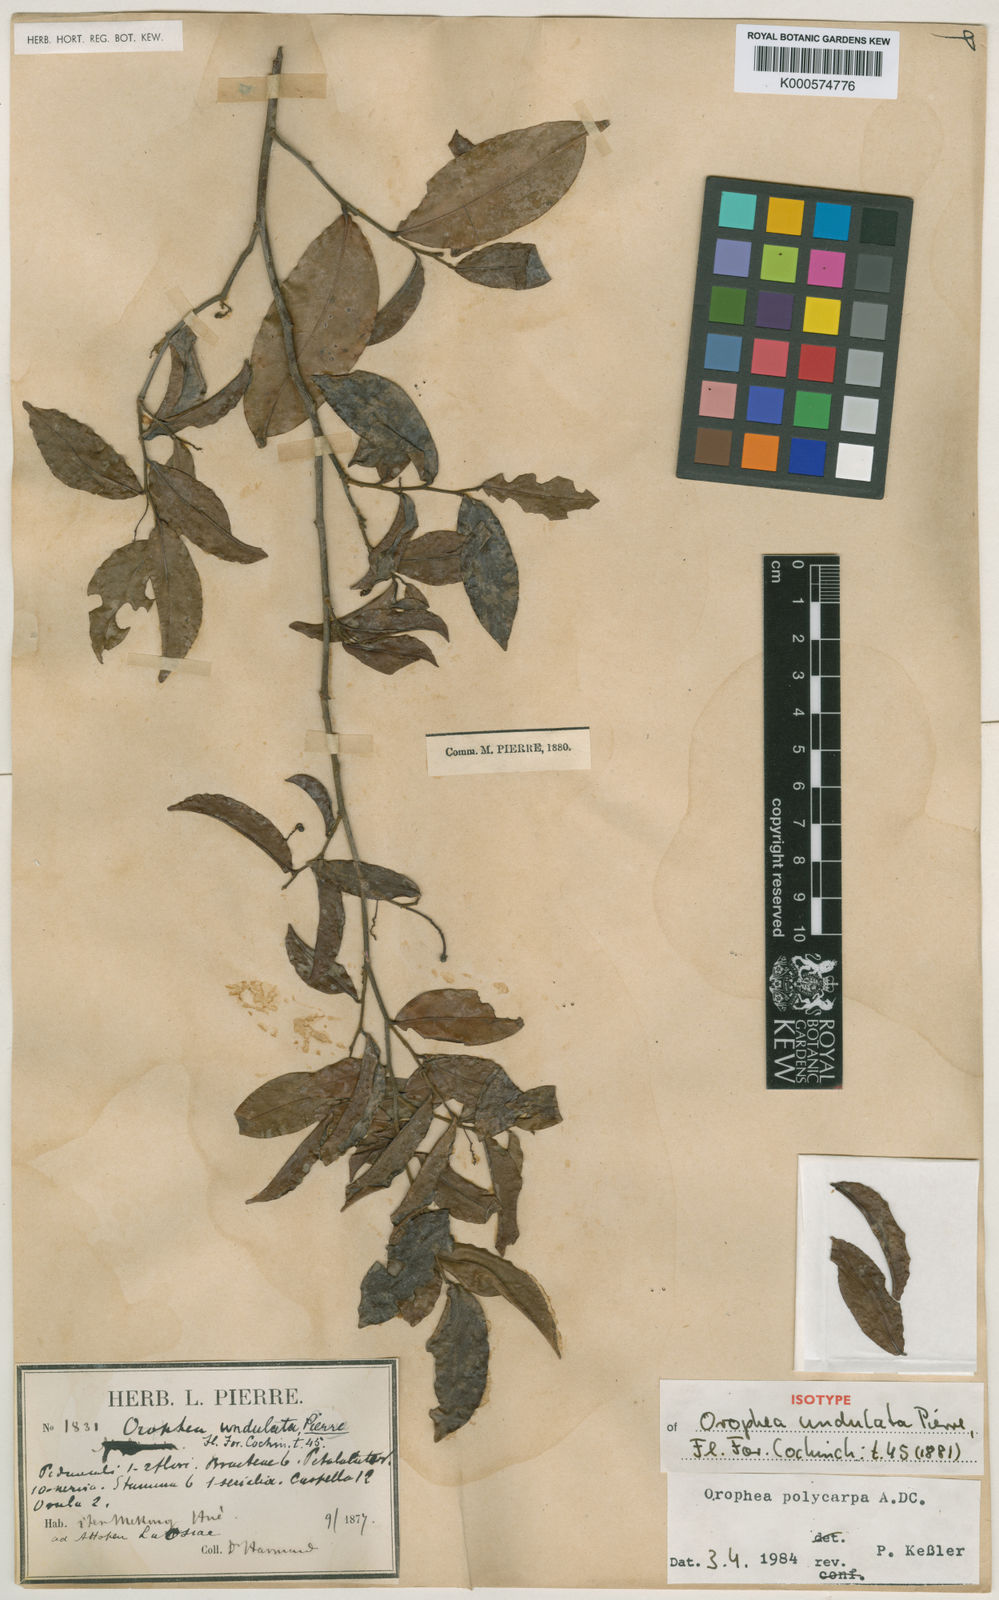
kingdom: Plantae
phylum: Tracheophyta
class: Magnoliopsida
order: Magnoliales
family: Annonaceae
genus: Orophea
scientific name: Orophea polycarpa
